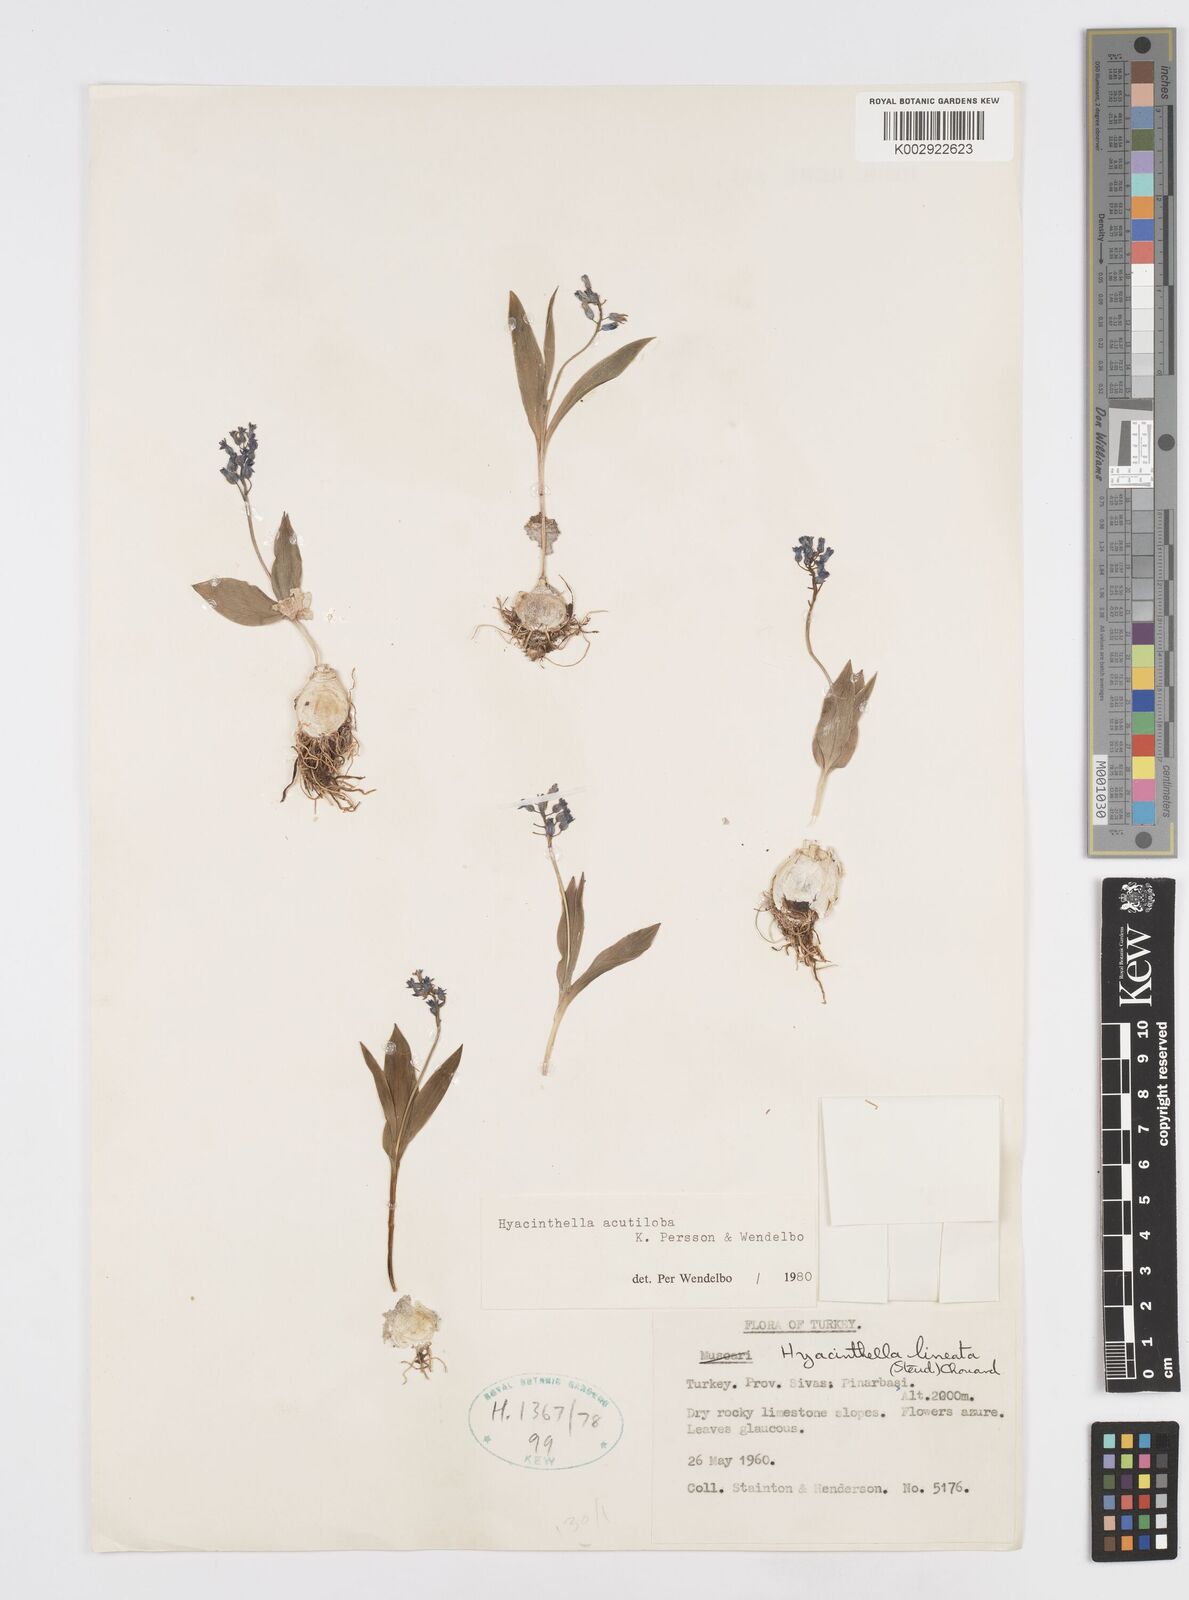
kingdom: Plantae
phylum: Tracheophyta
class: Liliopsida
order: Asparagales
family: Asparagaceae
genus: Hyacinthella
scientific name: Hyacinthella acutiloba
